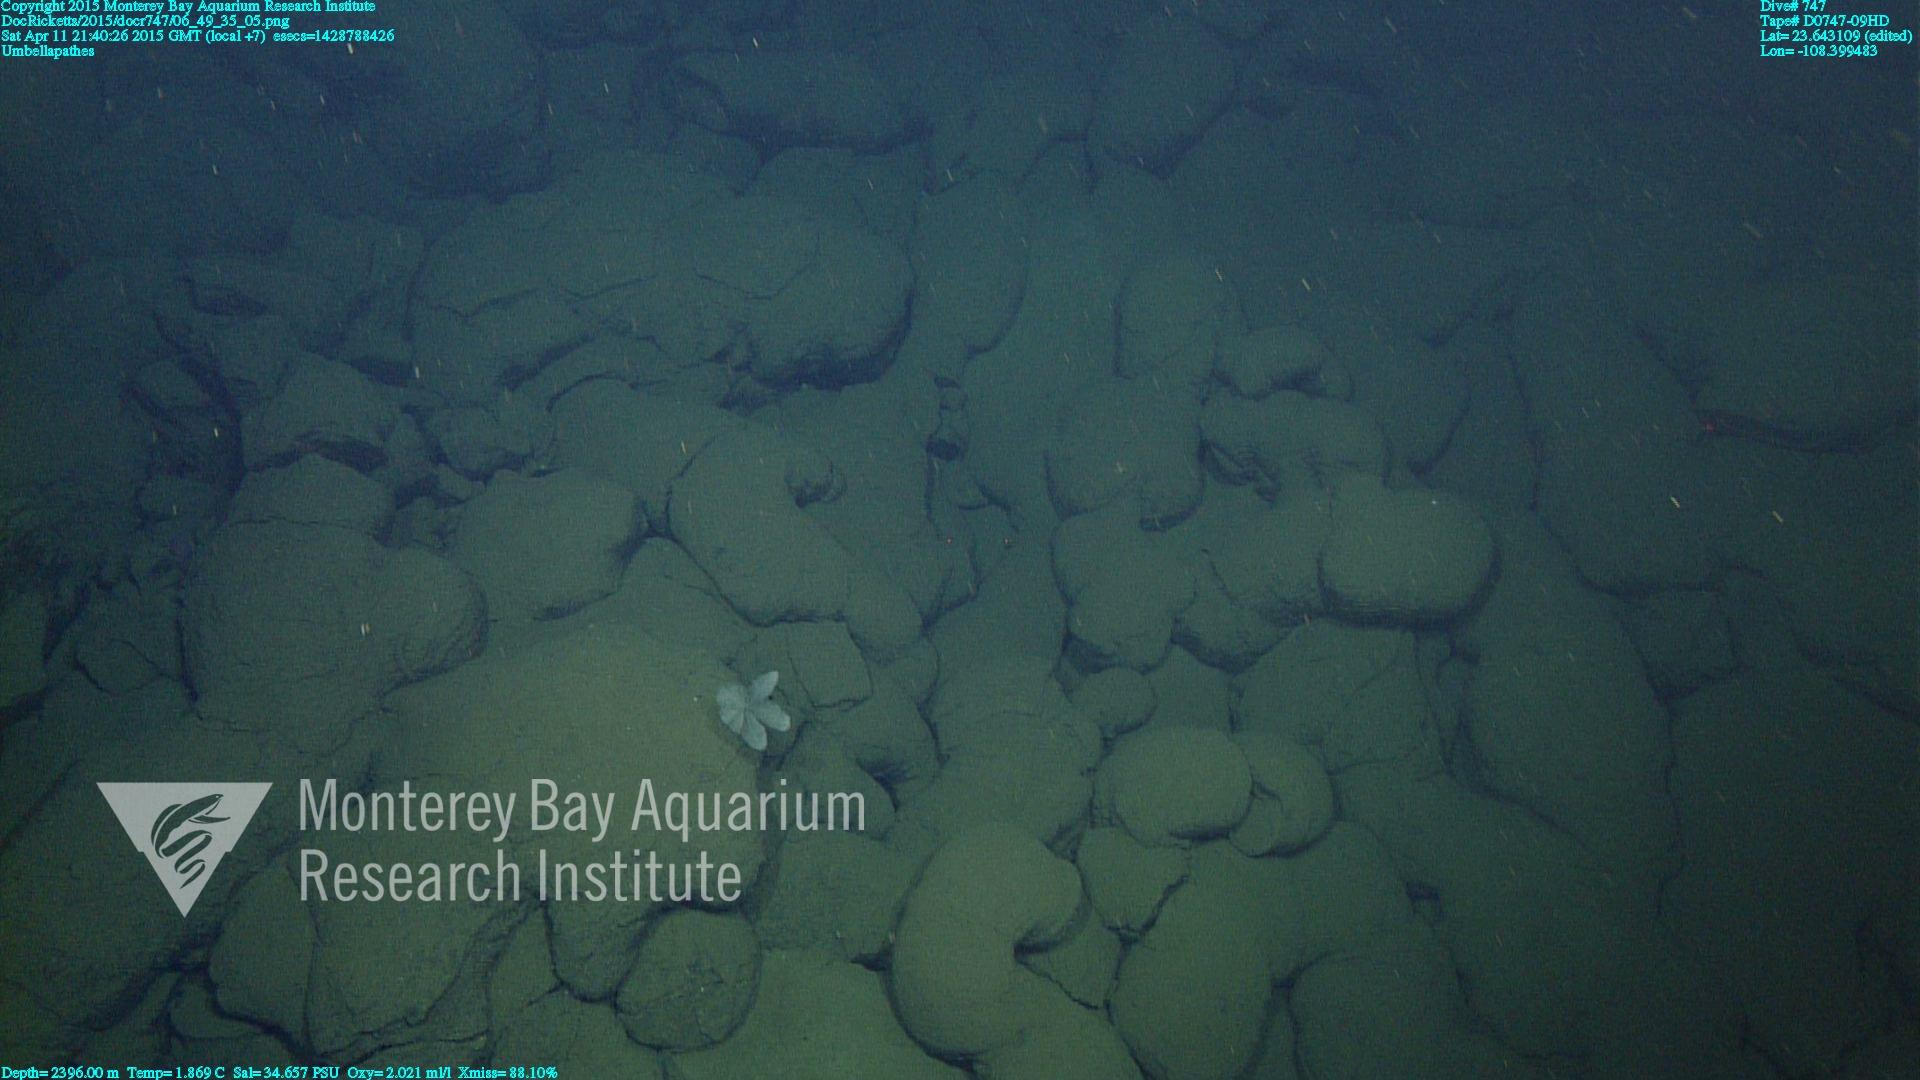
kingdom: Animalia
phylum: Cnidaria
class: Anthozoa
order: Antipatharia
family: Schizopathidae
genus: Umbellapathes
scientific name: Umbellapathes
